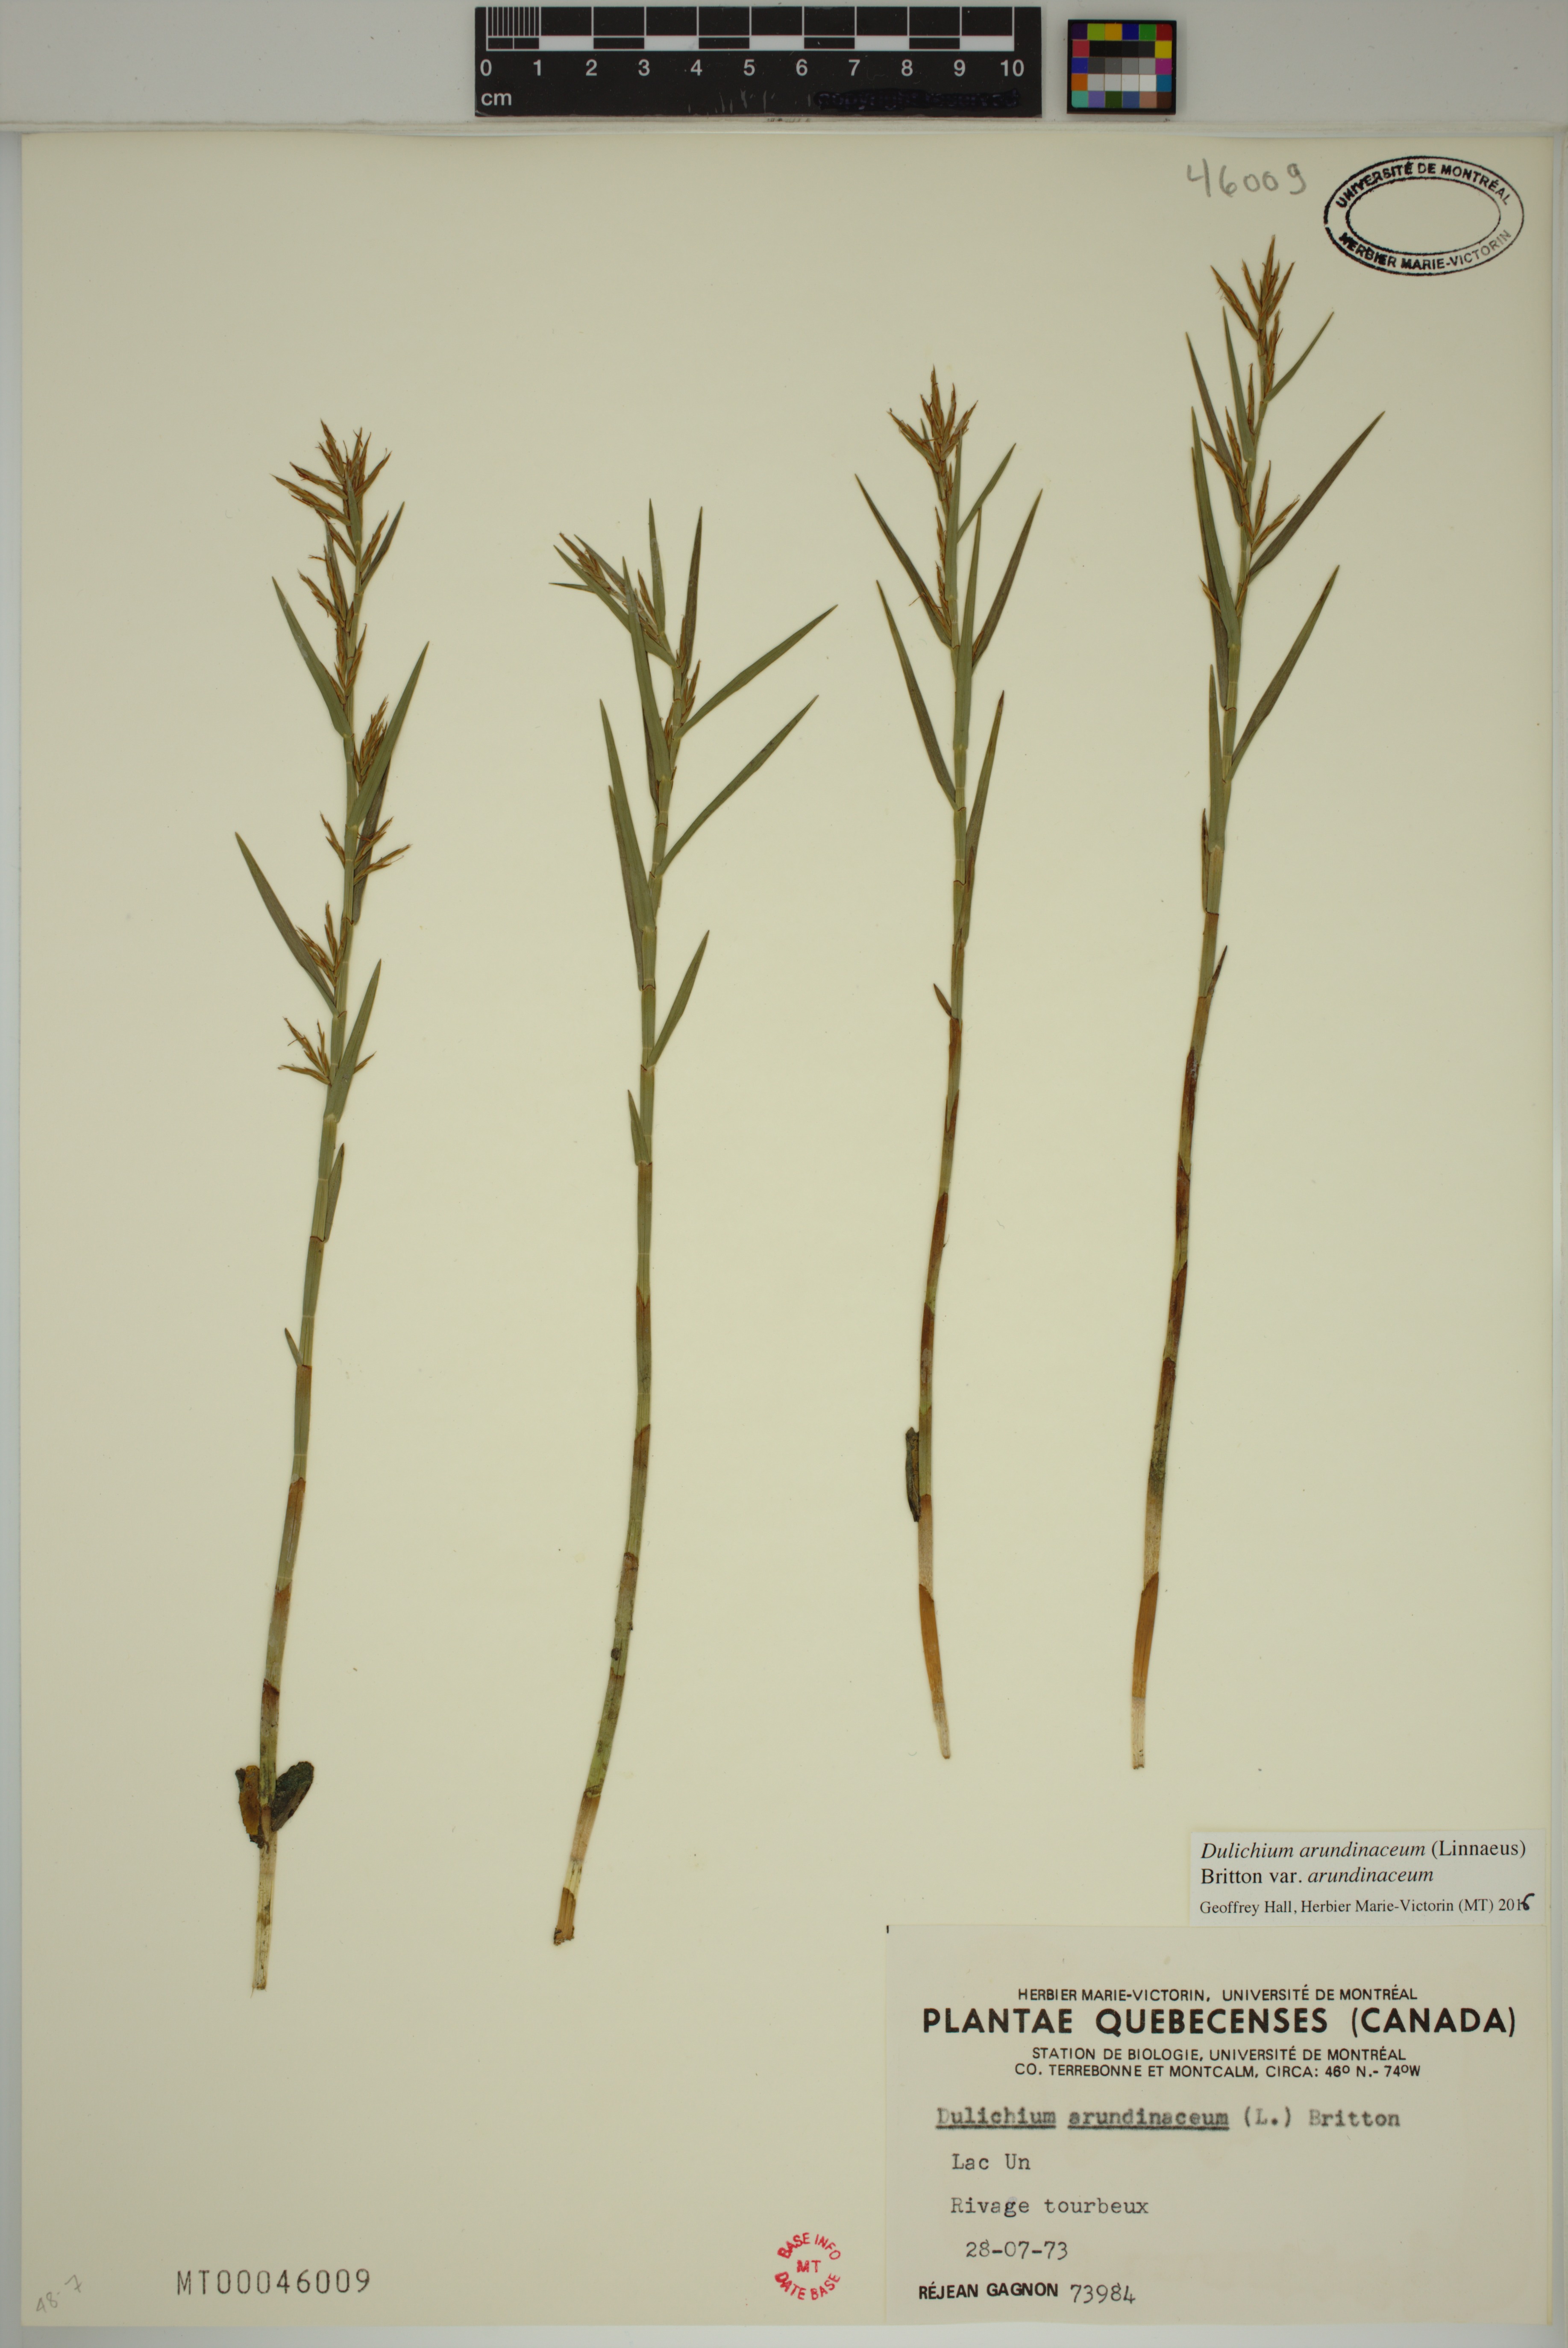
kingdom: Plantae
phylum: Tracheophyta
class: Liliopsida
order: Poales
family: Cyperaceae
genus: Dulichium
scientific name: Dulichium arundinaceum
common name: Three-way sedge
